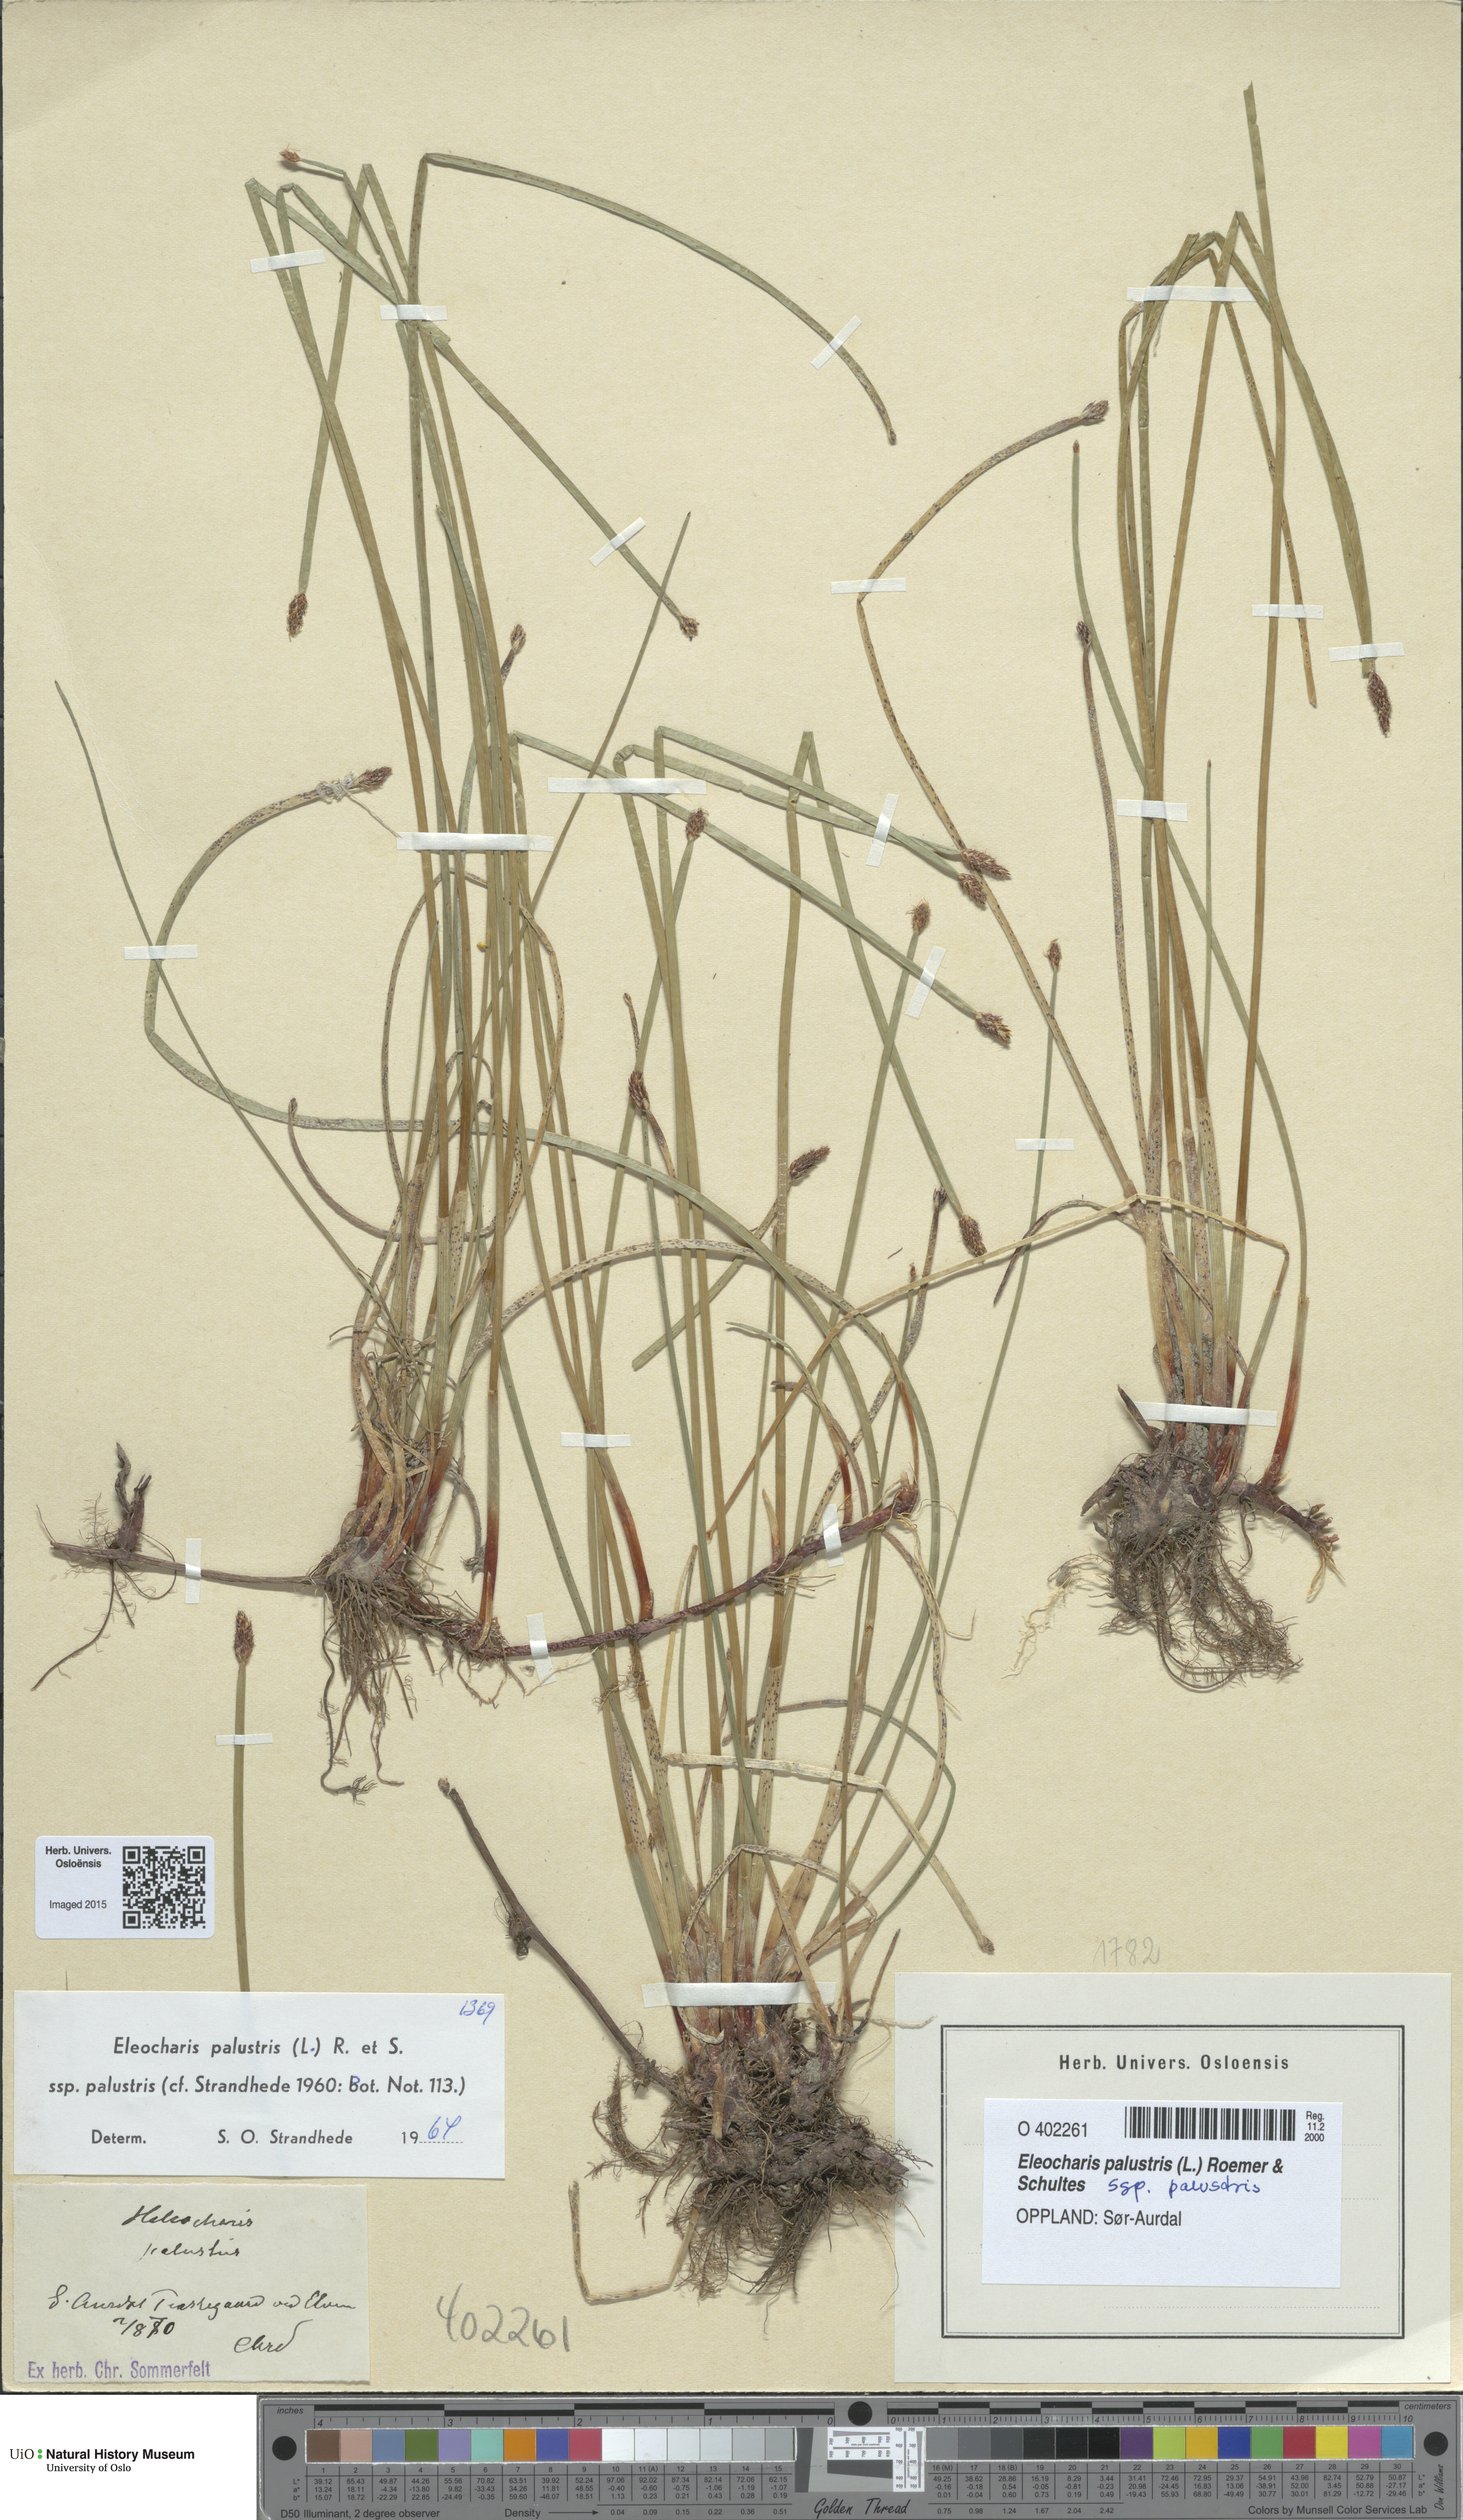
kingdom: Plantae
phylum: Tracheophyta
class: Liliopsida
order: Poales
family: Cyperaceae
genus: Eleocharis
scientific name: Eleocharis palustris
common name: Common spike-rush
